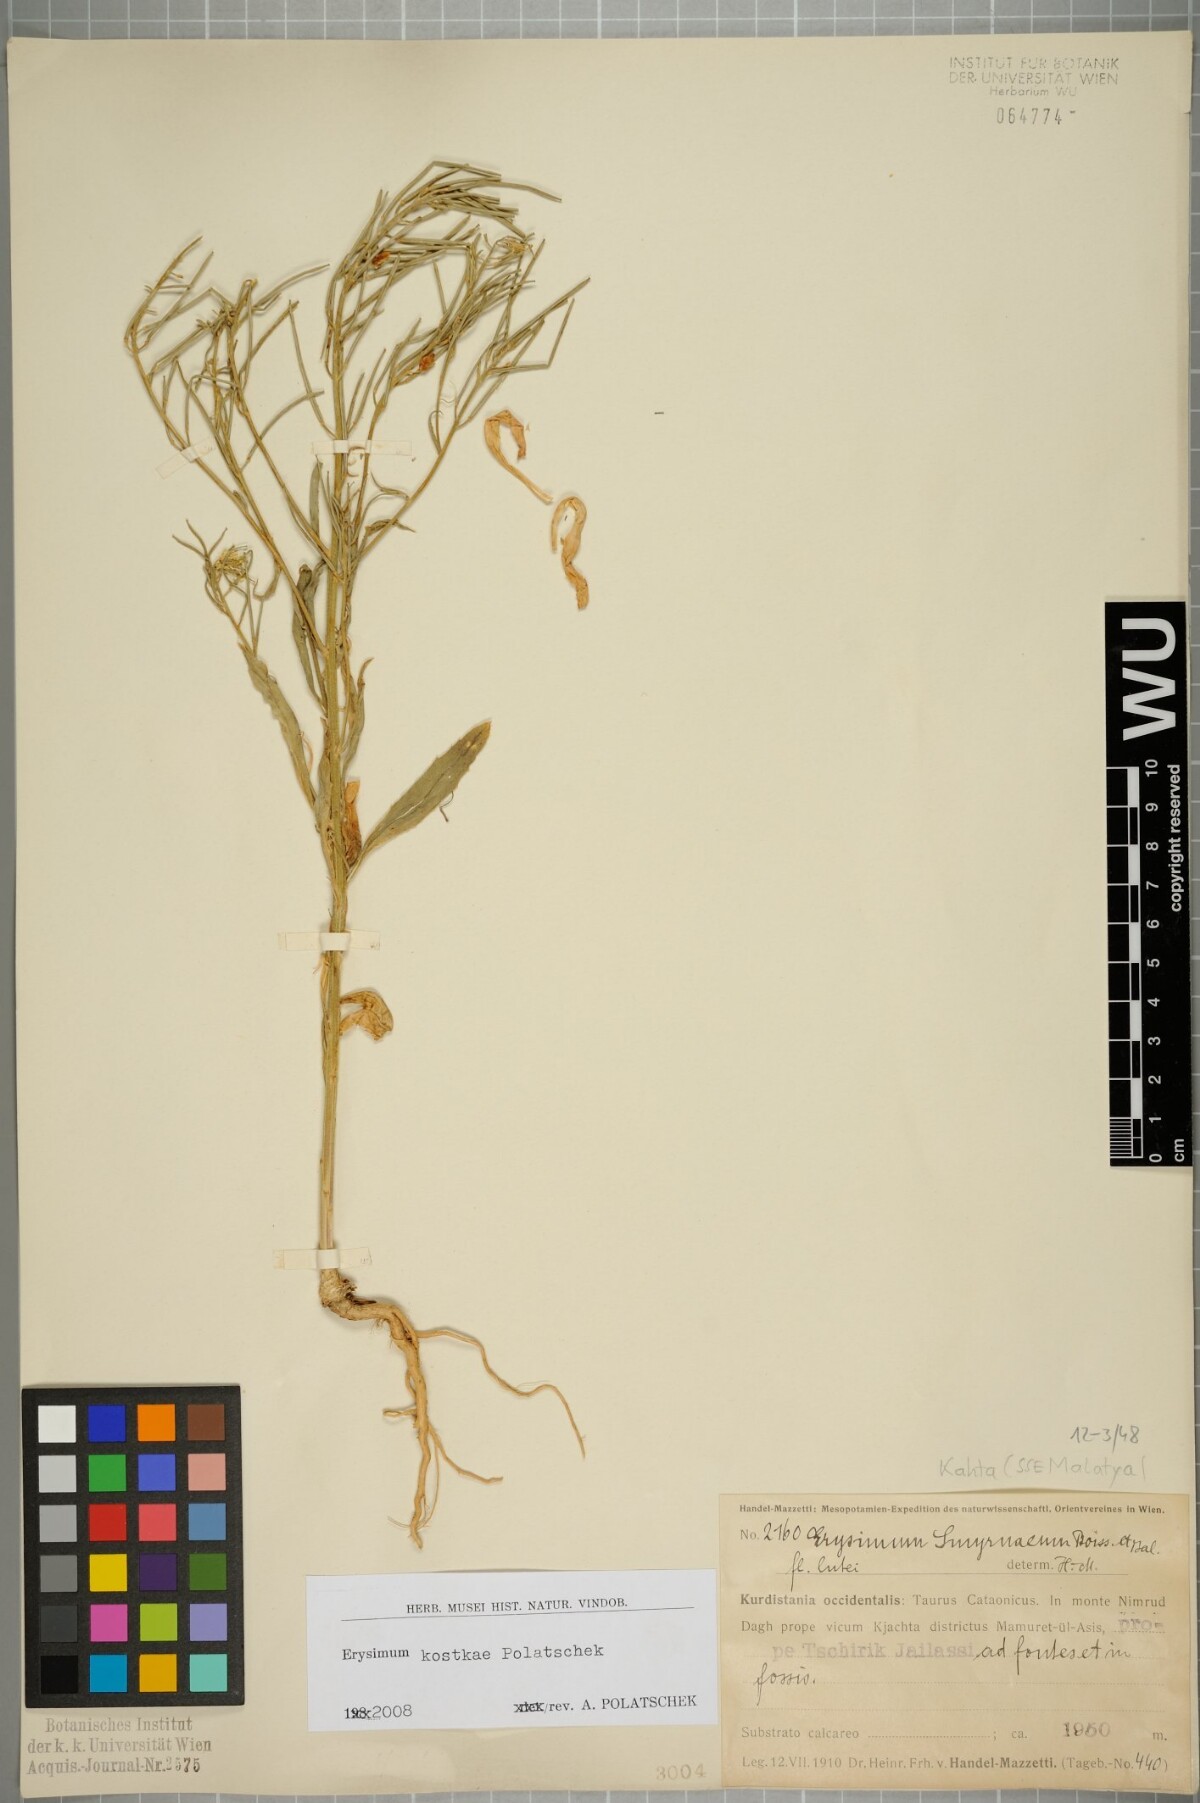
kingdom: Plantae
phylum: Tracheophyta
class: Magnoliopsida
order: Brassicales
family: Brassicaceae
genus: Erysimum
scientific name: Erysimum kostkae
